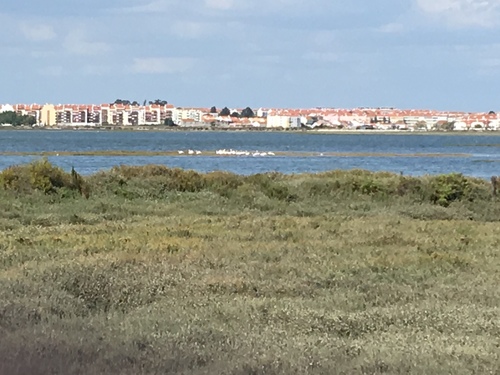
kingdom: Animalia
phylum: Chordata
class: Aves
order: Phoenicopteriformes
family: Phoenicopteridae
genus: Phoenicopterus
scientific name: Phoenicopterus roseus
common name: Greater flamingo
